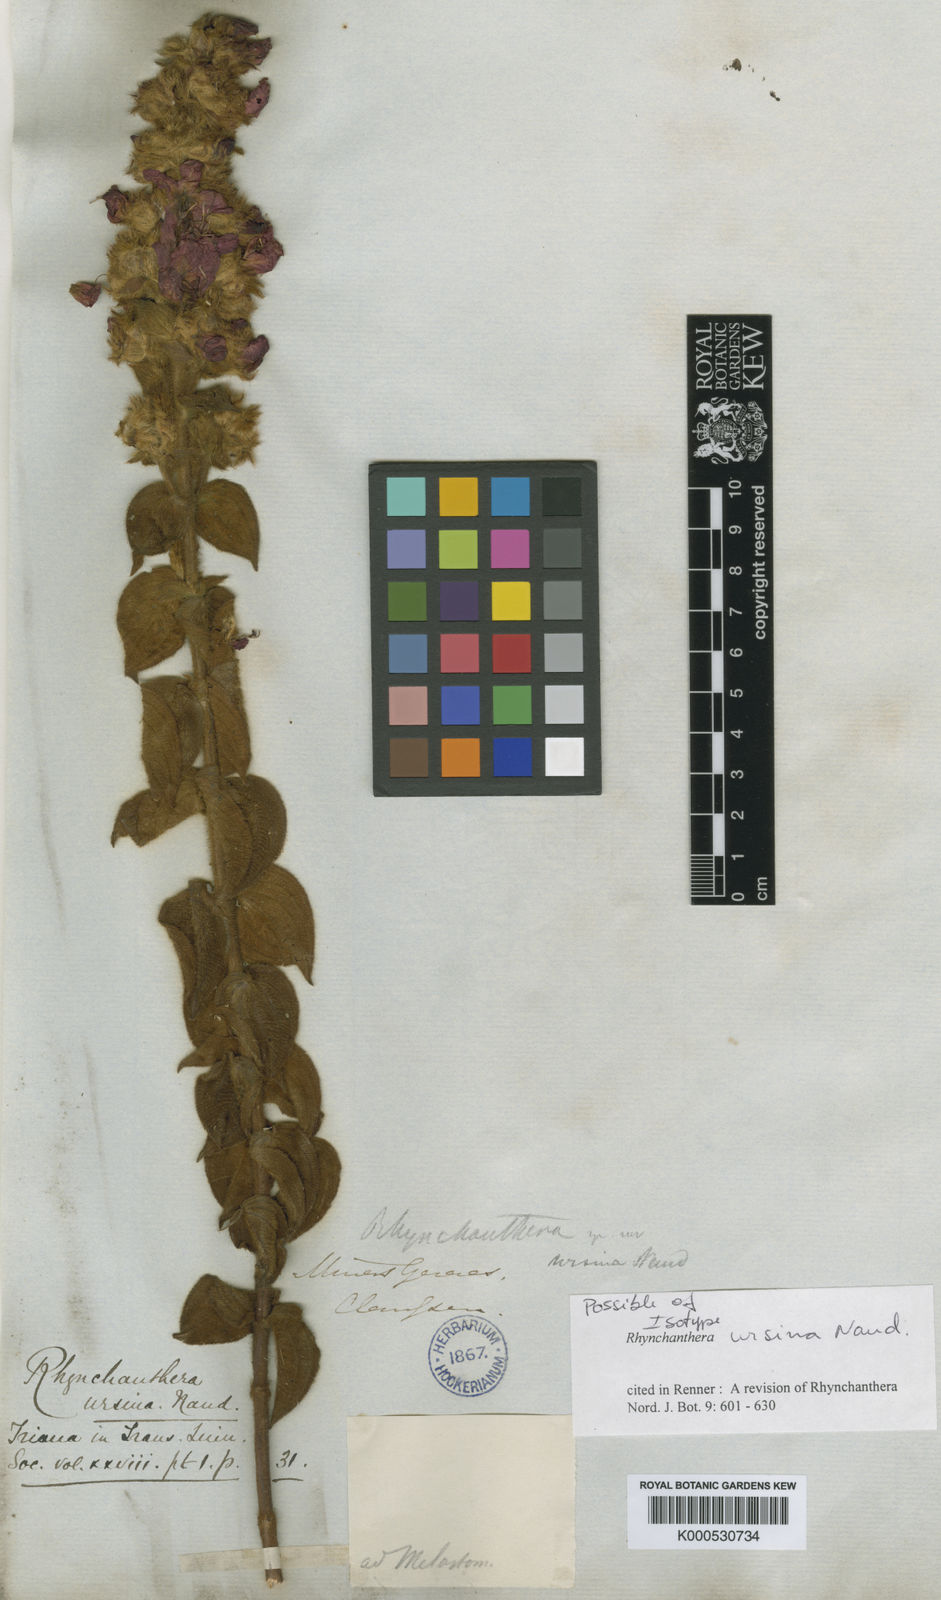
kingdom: Plantae
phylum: Tracheophyta
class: Magnoliopsida
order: Myrtales
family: Melastomataceae
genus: Rhynchanthera
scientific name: Rhynchanthera ursina
